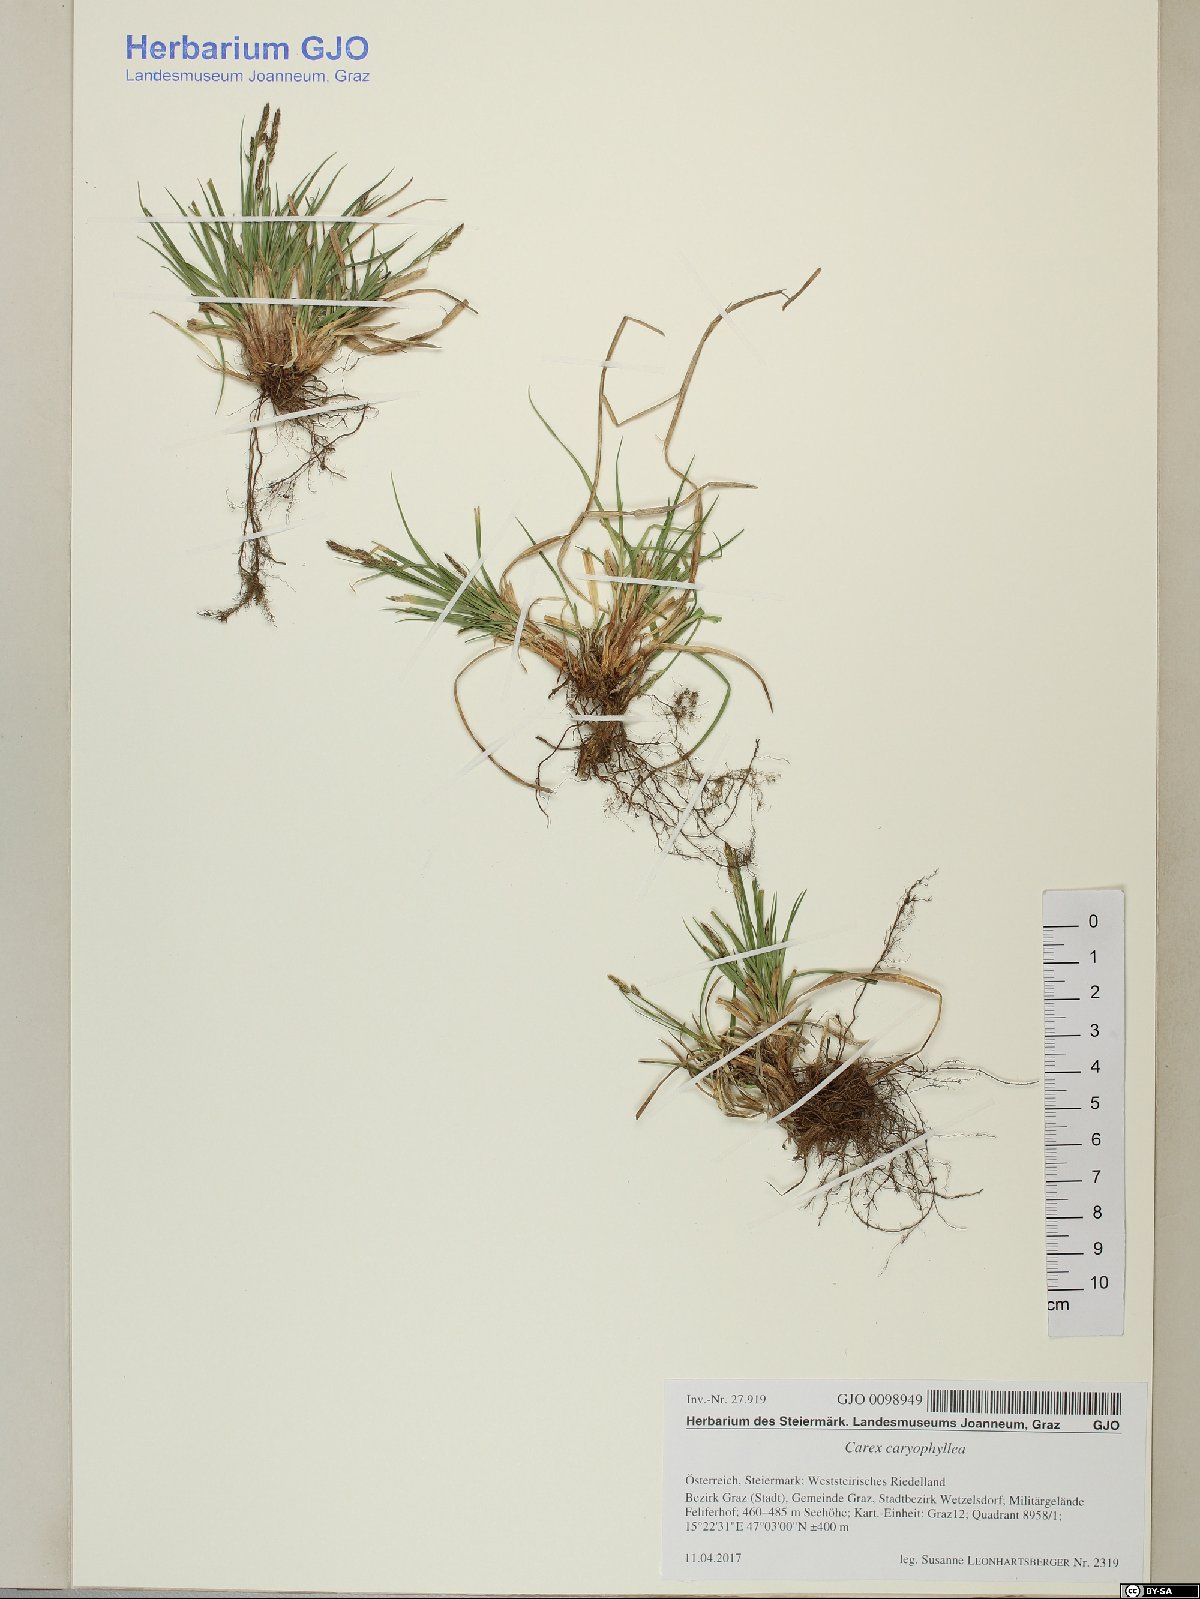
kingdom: Plantae
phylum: Tracheophyta
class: Liliopsida
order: Poales
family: Cyperaceae
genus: Carex
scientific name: Carex caryophyllea
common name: Spring sedge
